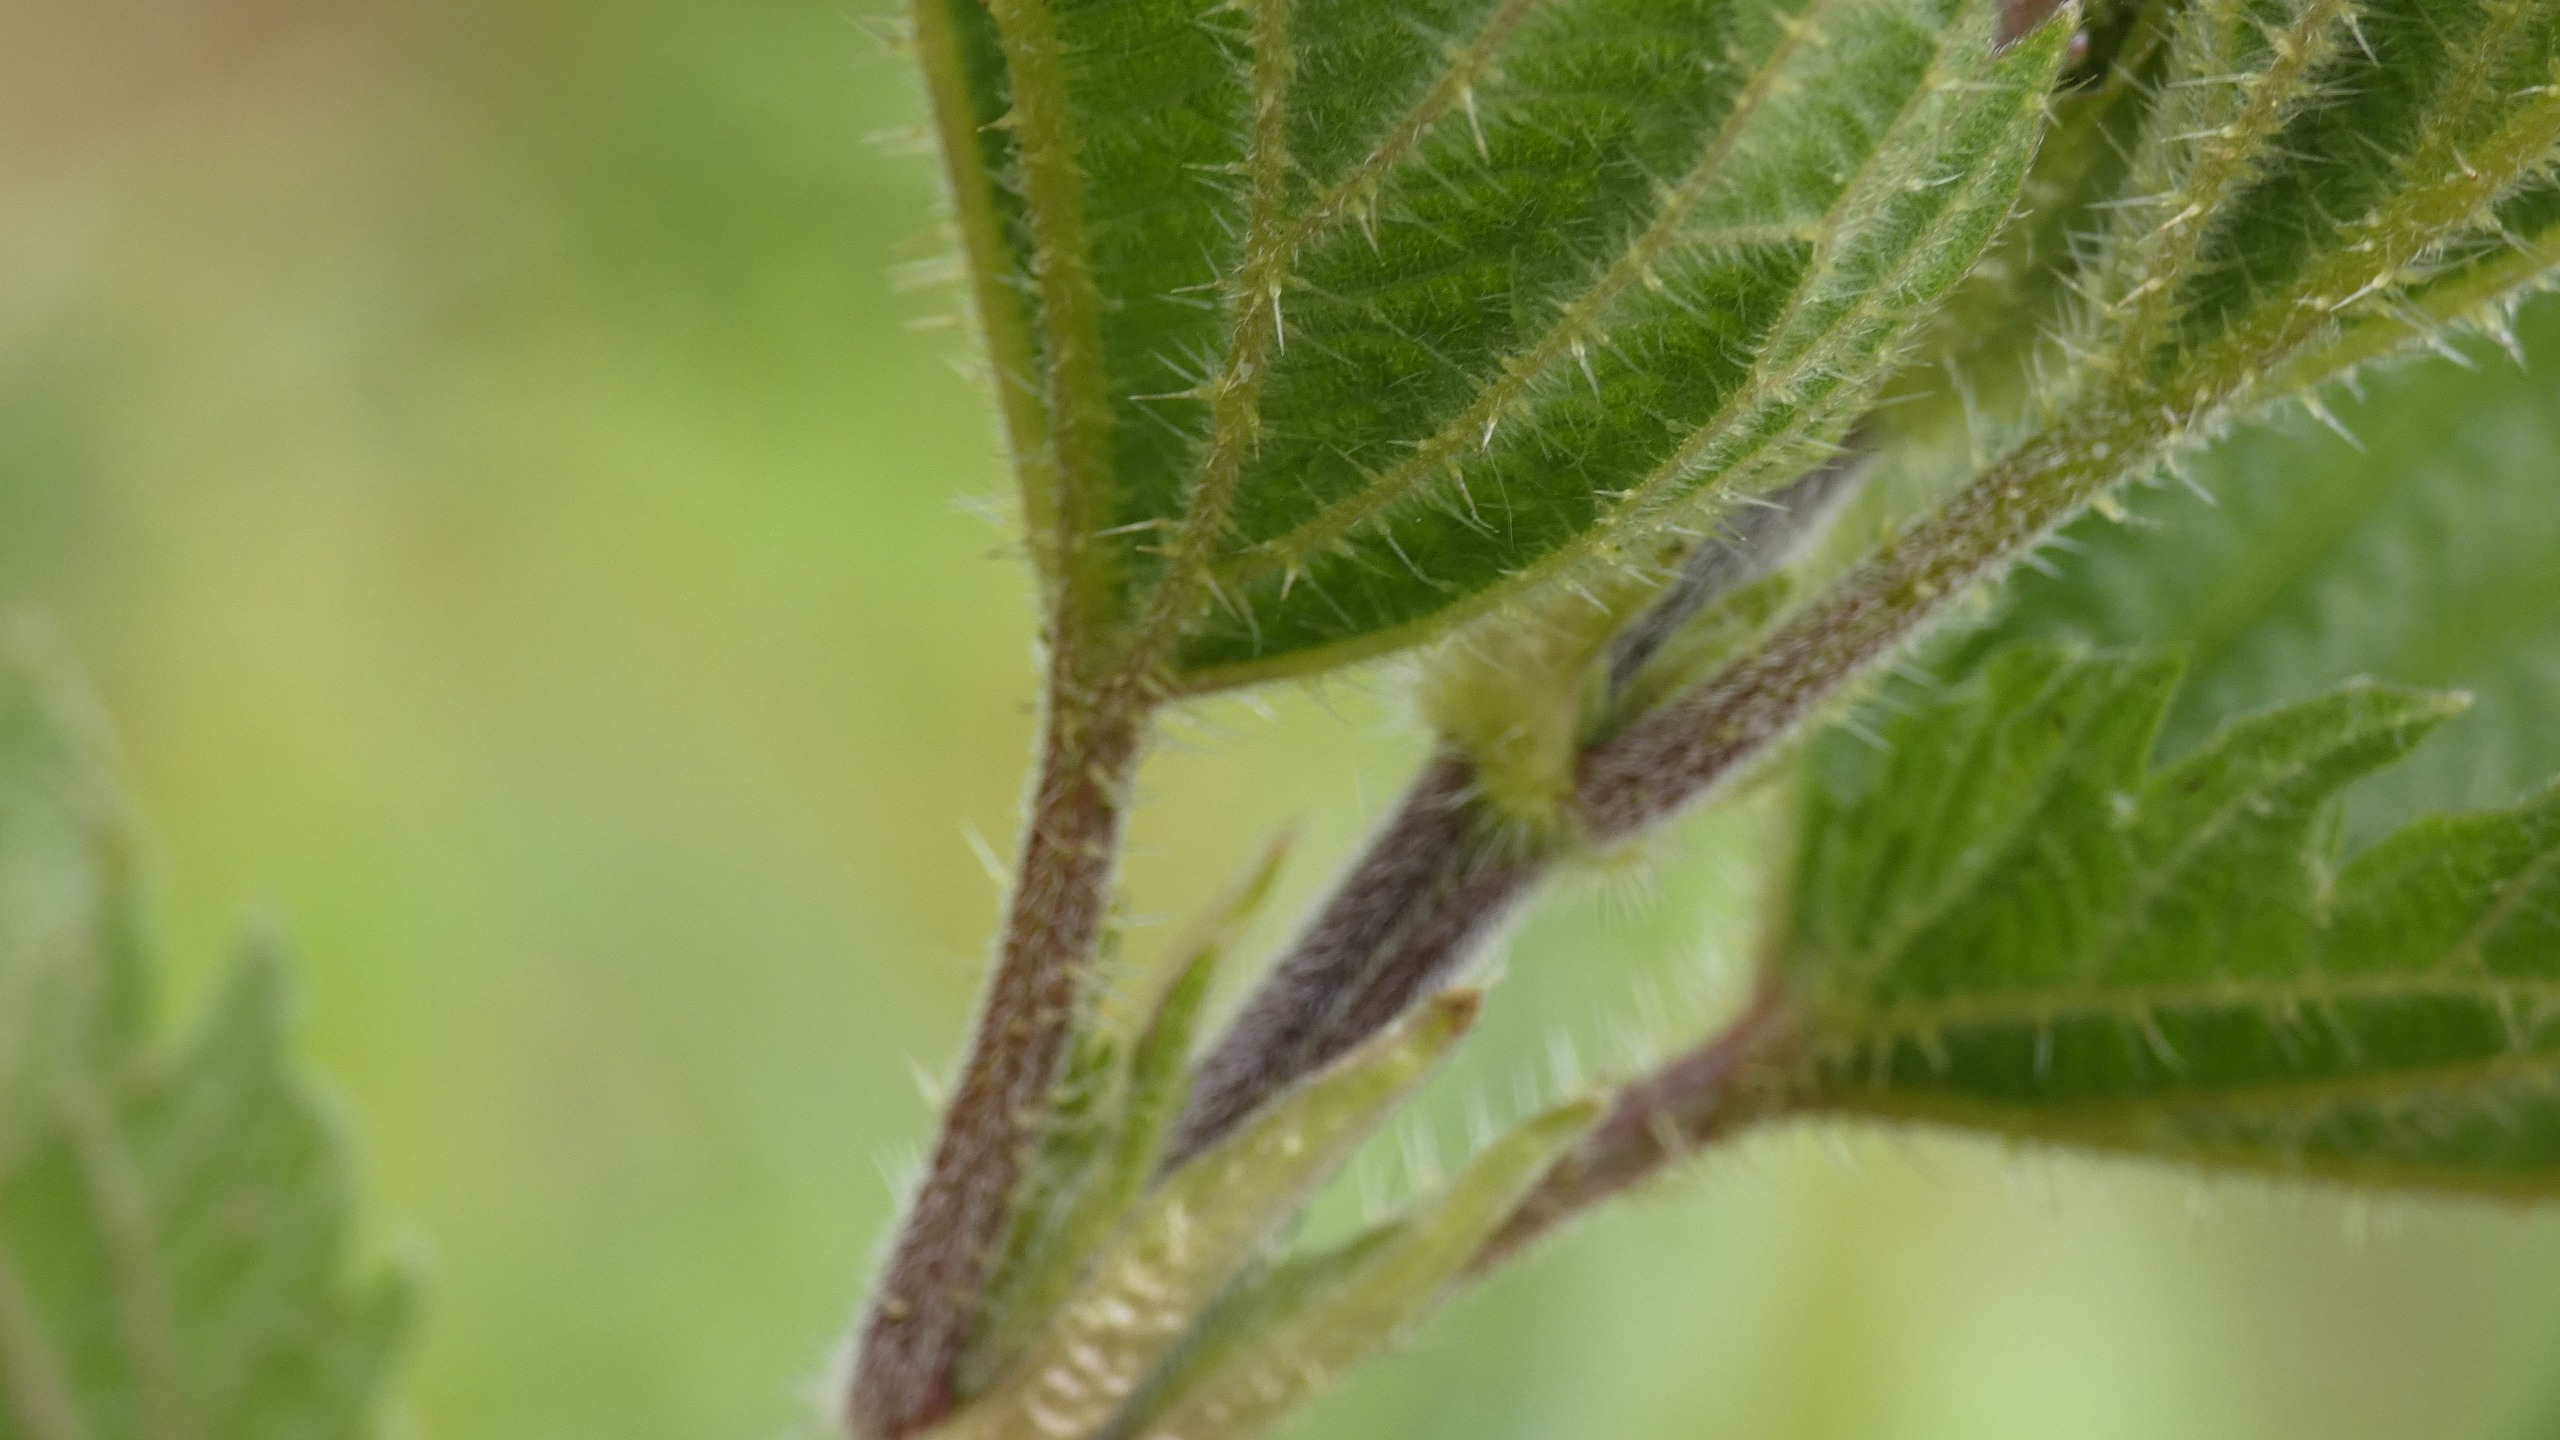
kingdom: Plantae
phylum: Tracheophyta
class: Magnoliopsida
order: Rosales
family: Urticaceae
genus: Urtica
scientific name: Urtica dioica
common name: Stor nælde
